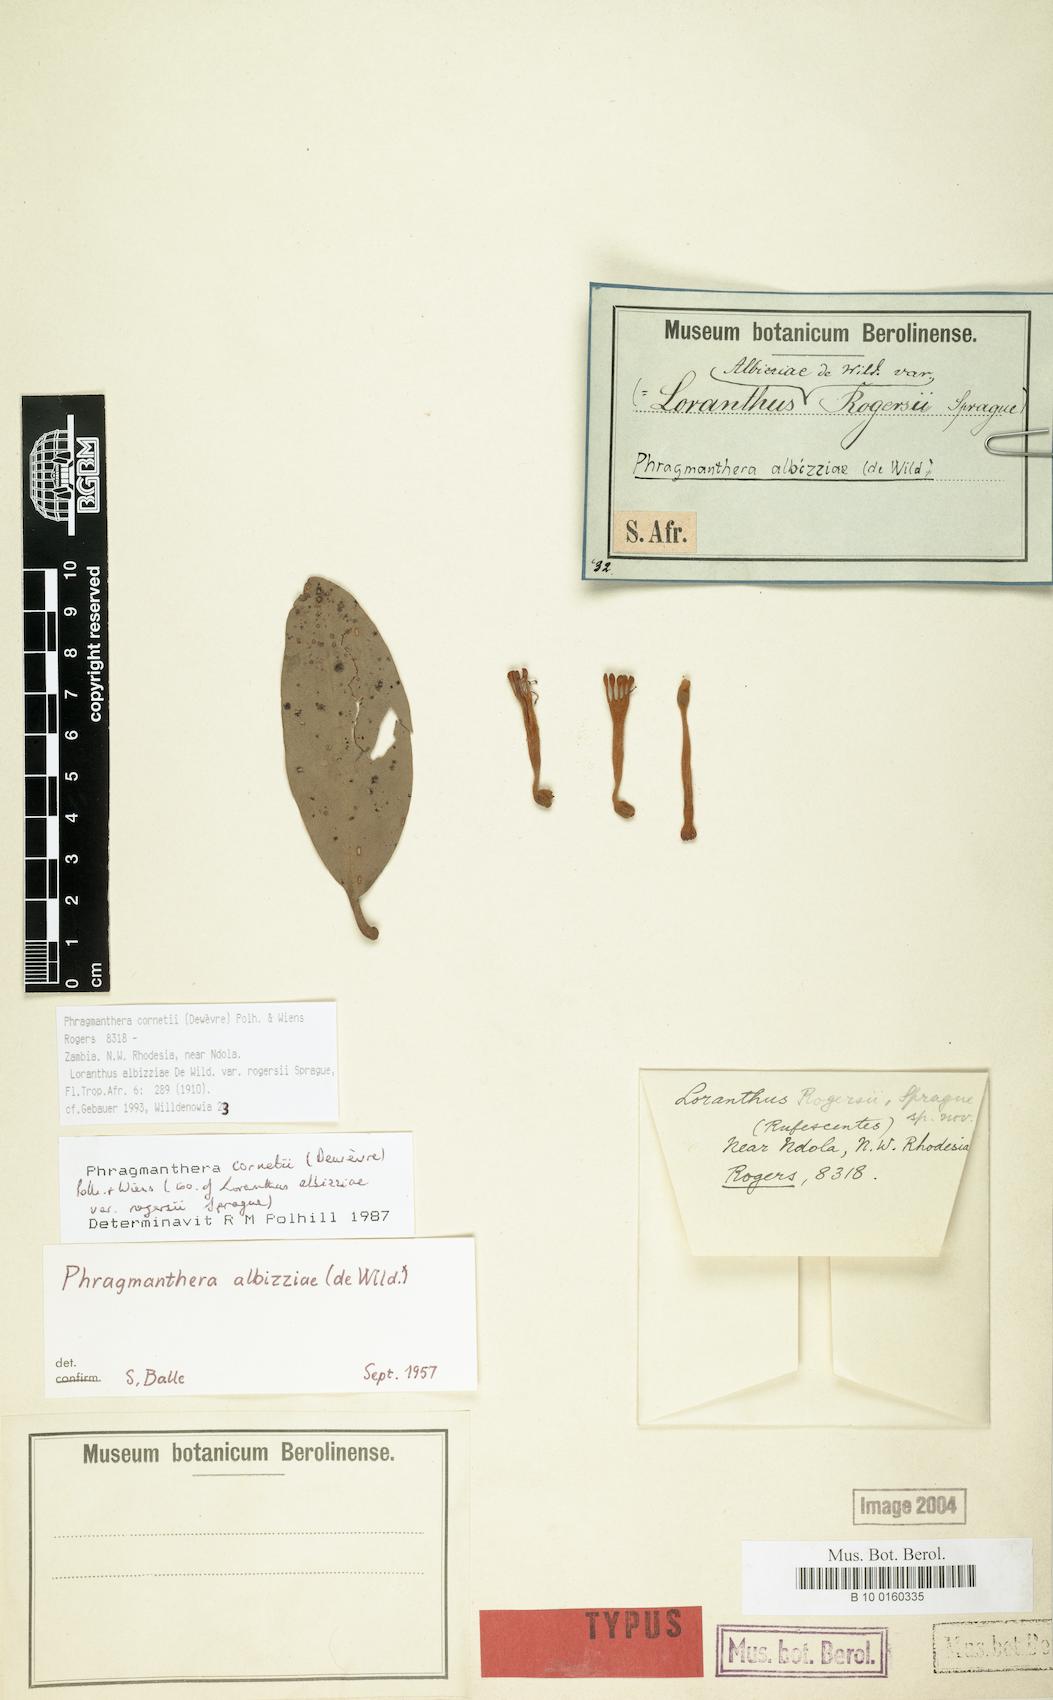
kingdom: Plantae
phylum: Tracheophyta
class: Magnoliopsida
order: Santalales
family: Loranthaceae
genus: Phragmanthera
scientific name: Phragmanthera cornetii
